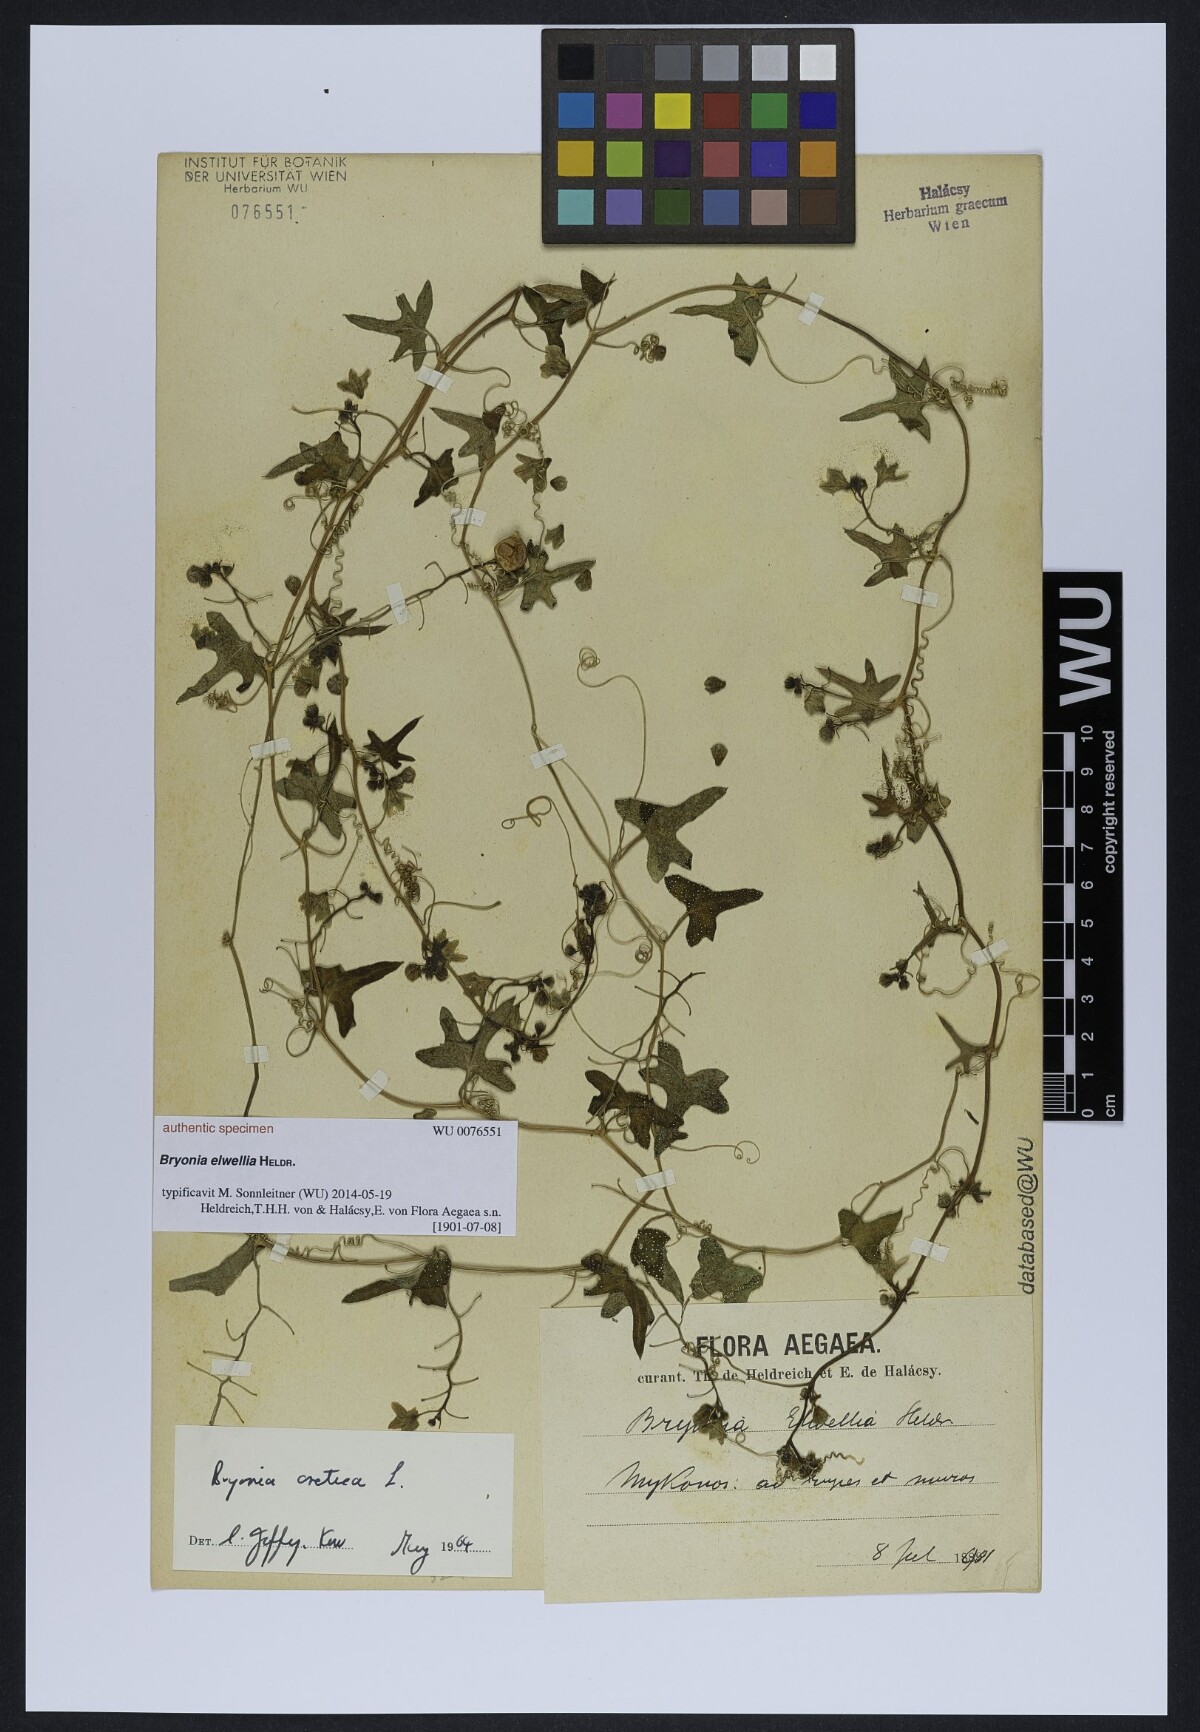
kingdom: Plantae
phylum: Tracheophyta
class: Magnoliopsida
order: Cucurbitales
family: Cucurbitaceae
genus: Bryonia
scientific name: Bryonia
